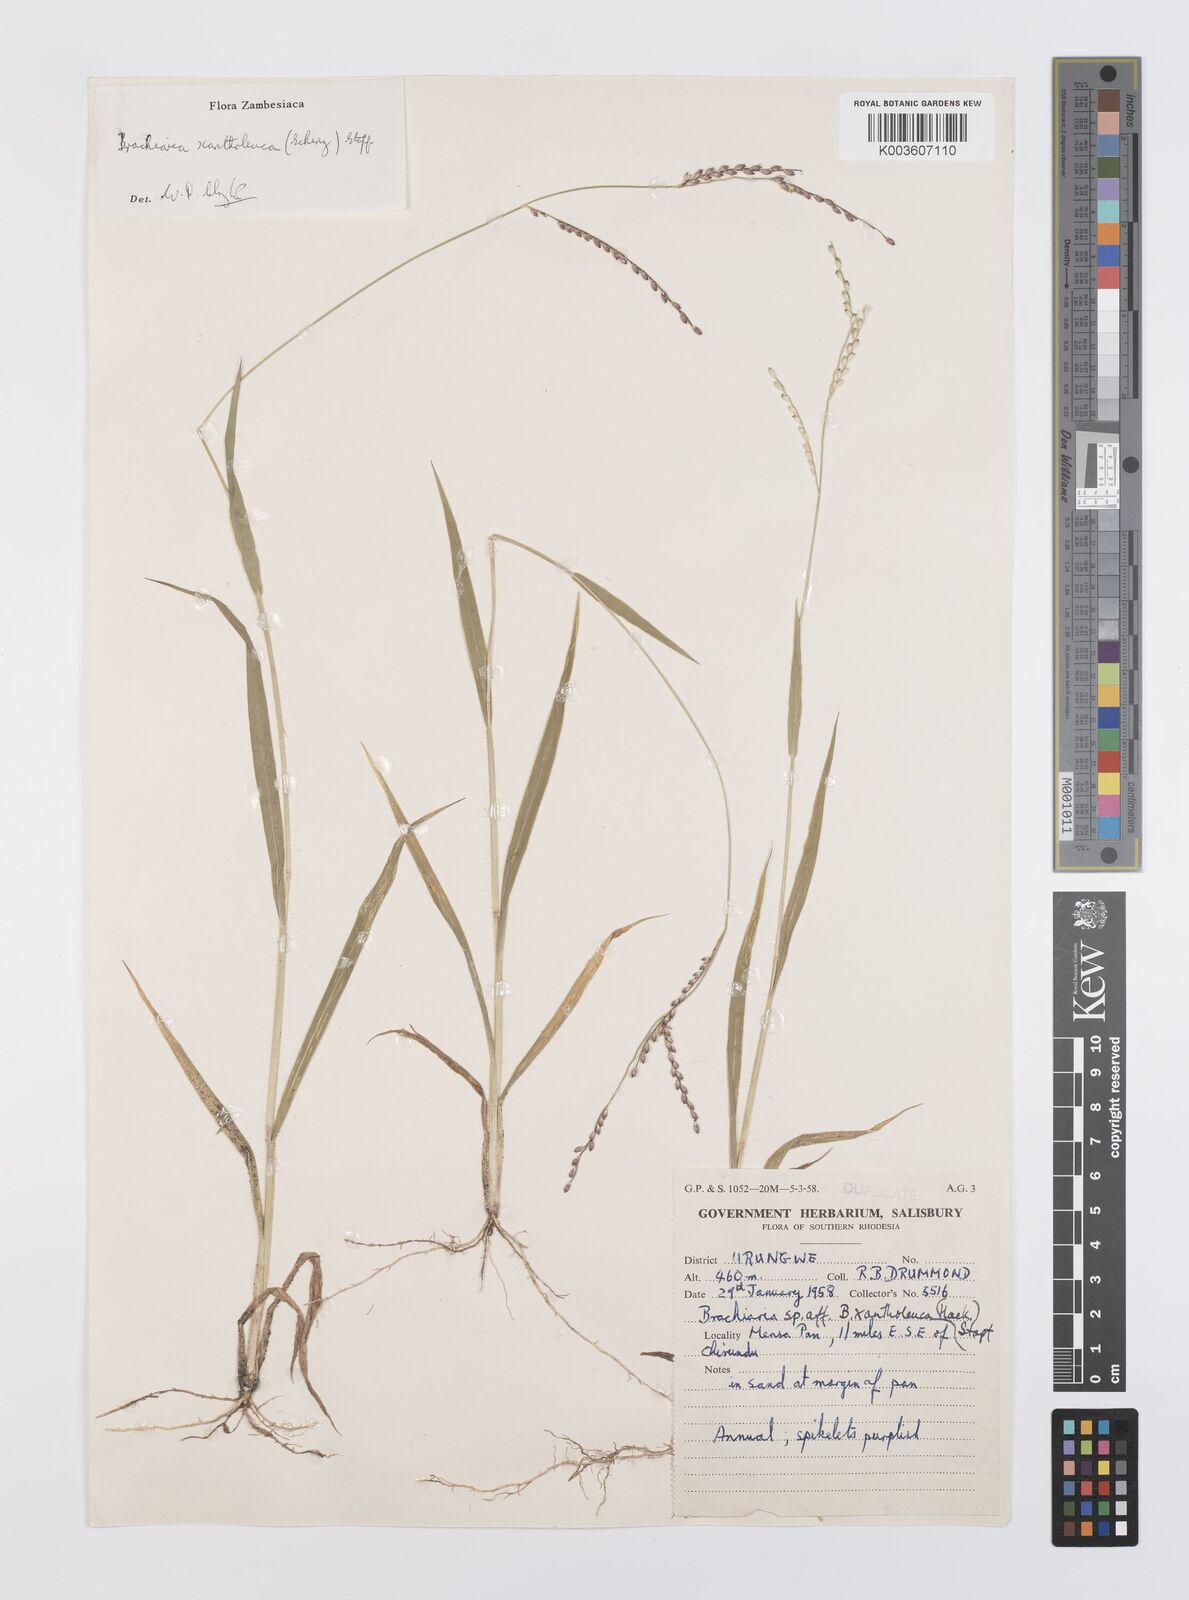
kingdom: Plantae
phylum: Tracheophyta
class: Liliopsida
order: Poales
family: Poaceae
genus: Urochloa
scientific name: Urochloa xantholeuca
